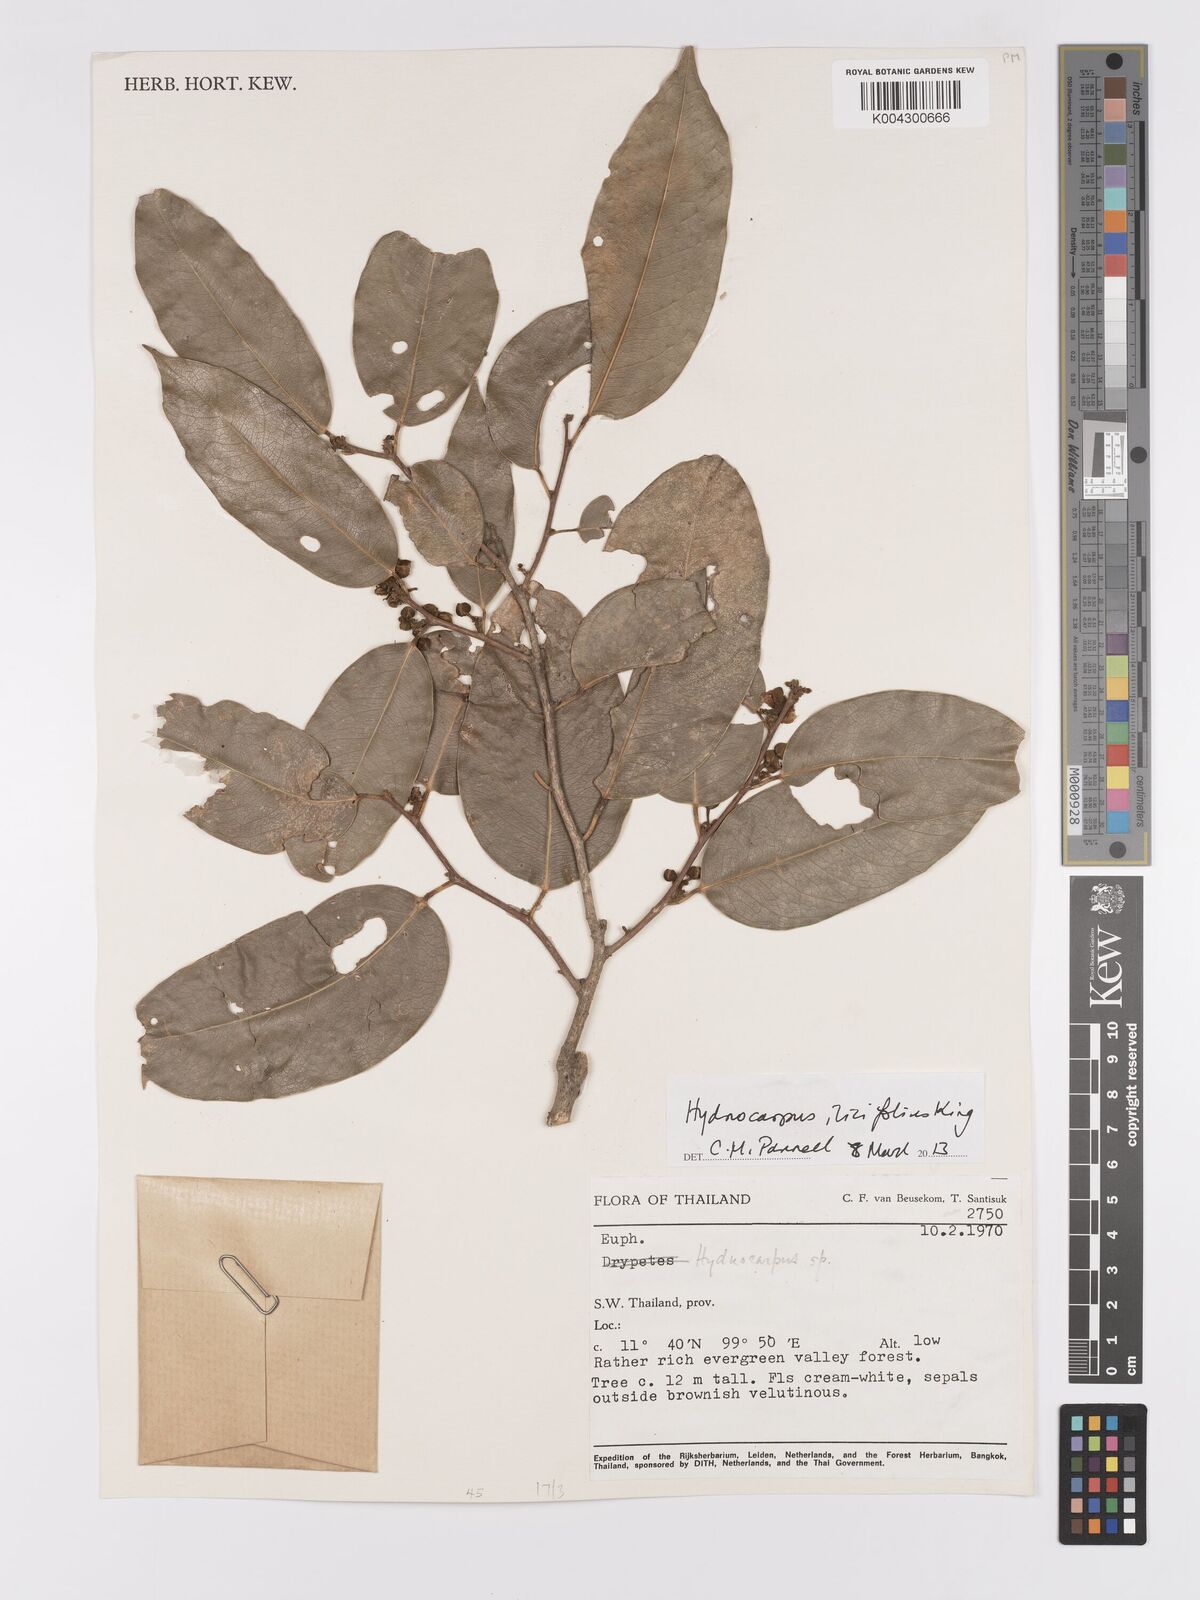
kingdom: Plantae
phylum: Tracheophyta
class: Magnoliopsida
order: Malpighiales
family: Achariaceae
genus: Hydnocarpus
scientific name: Hydnocarpus ilicifolius
